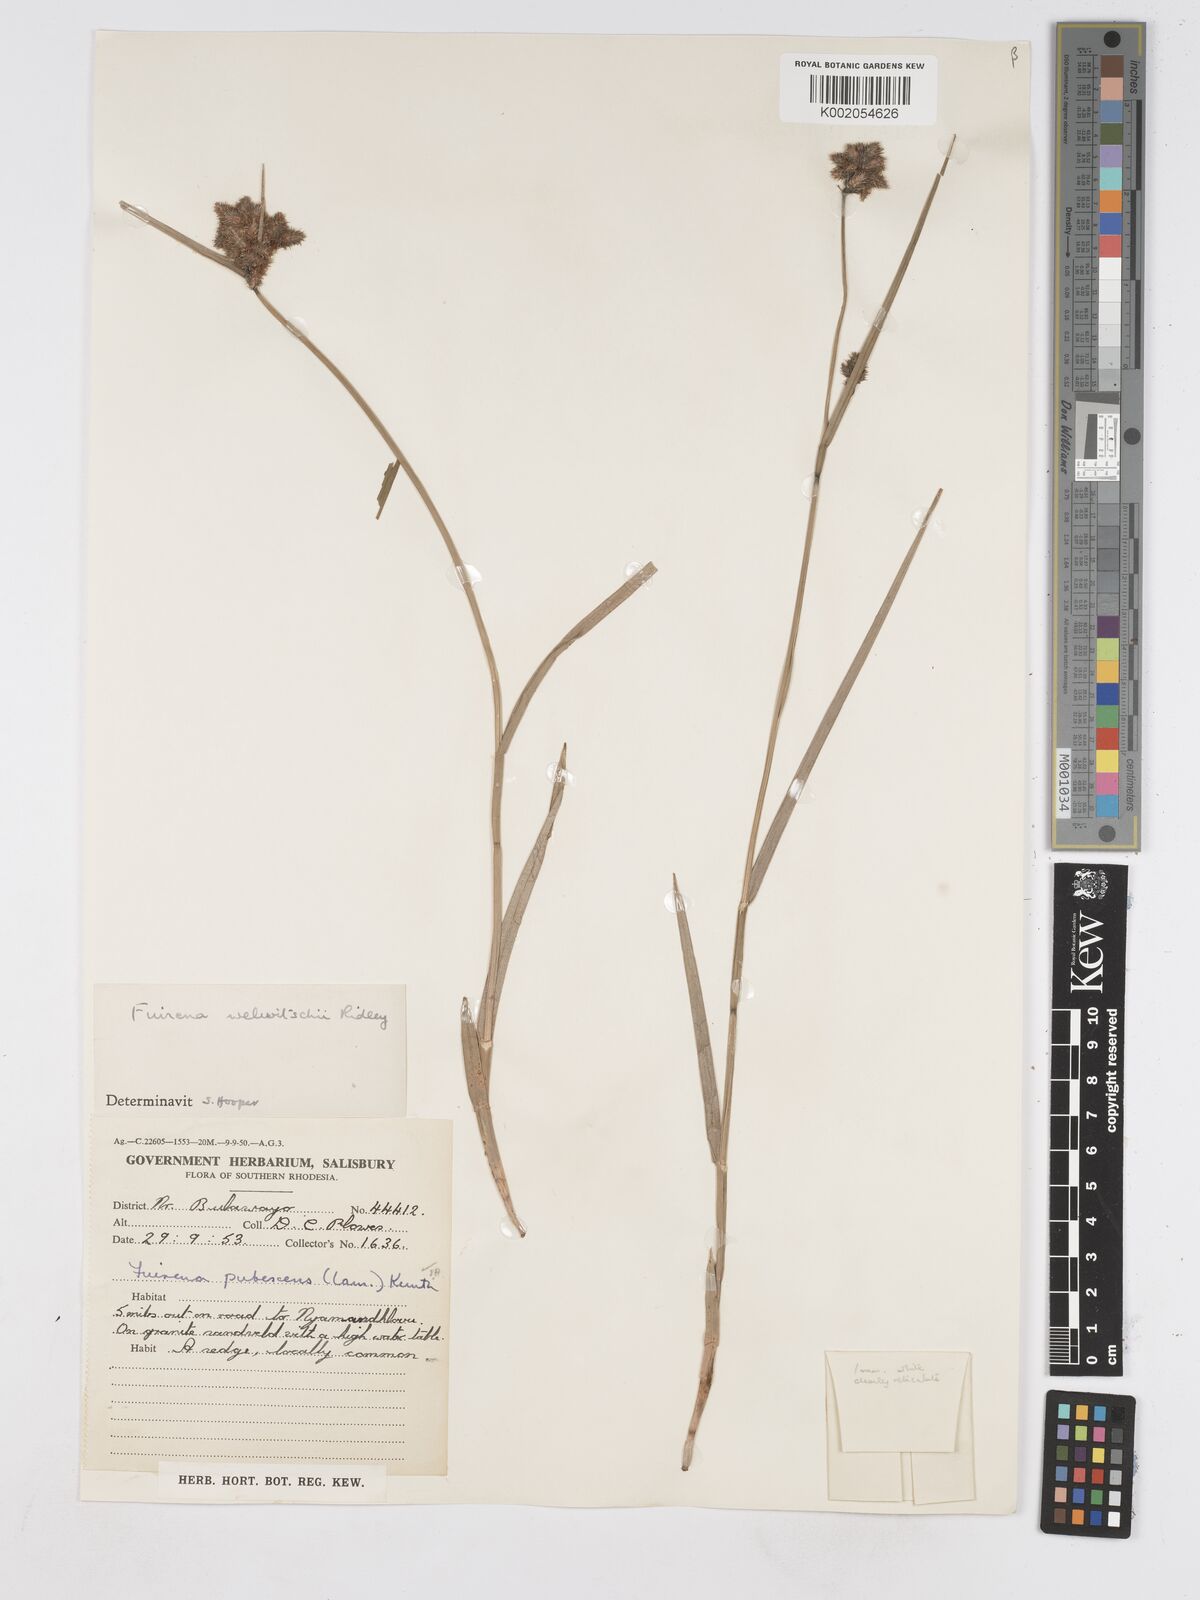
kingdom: Plantae
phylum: Tracheophyta
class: Liliopsida
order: Poales
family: Cyperaceae
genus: Fuirena
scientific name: Fuirena welwitschii
